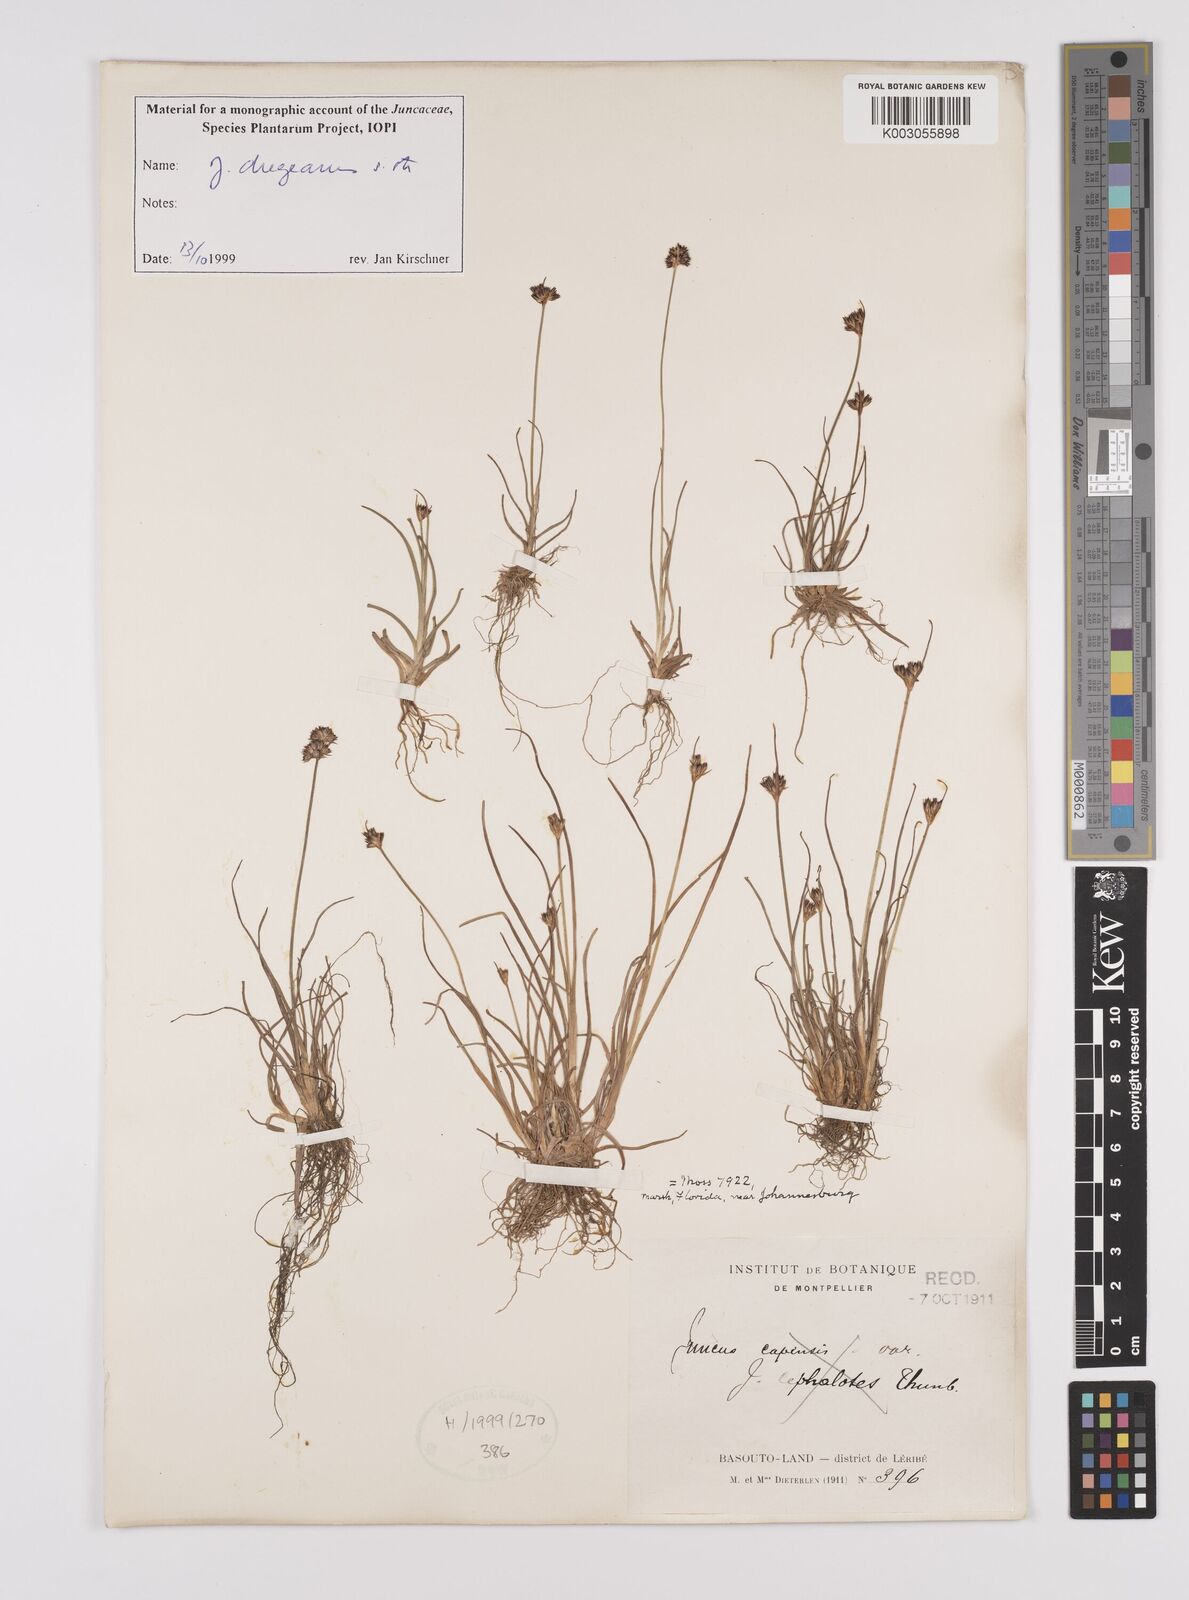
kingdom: Plantae
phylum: Tracheophyta
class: Liliopsida
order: Poales
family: Juncaceae
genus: Juncus
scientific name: Juncus dregeanus
